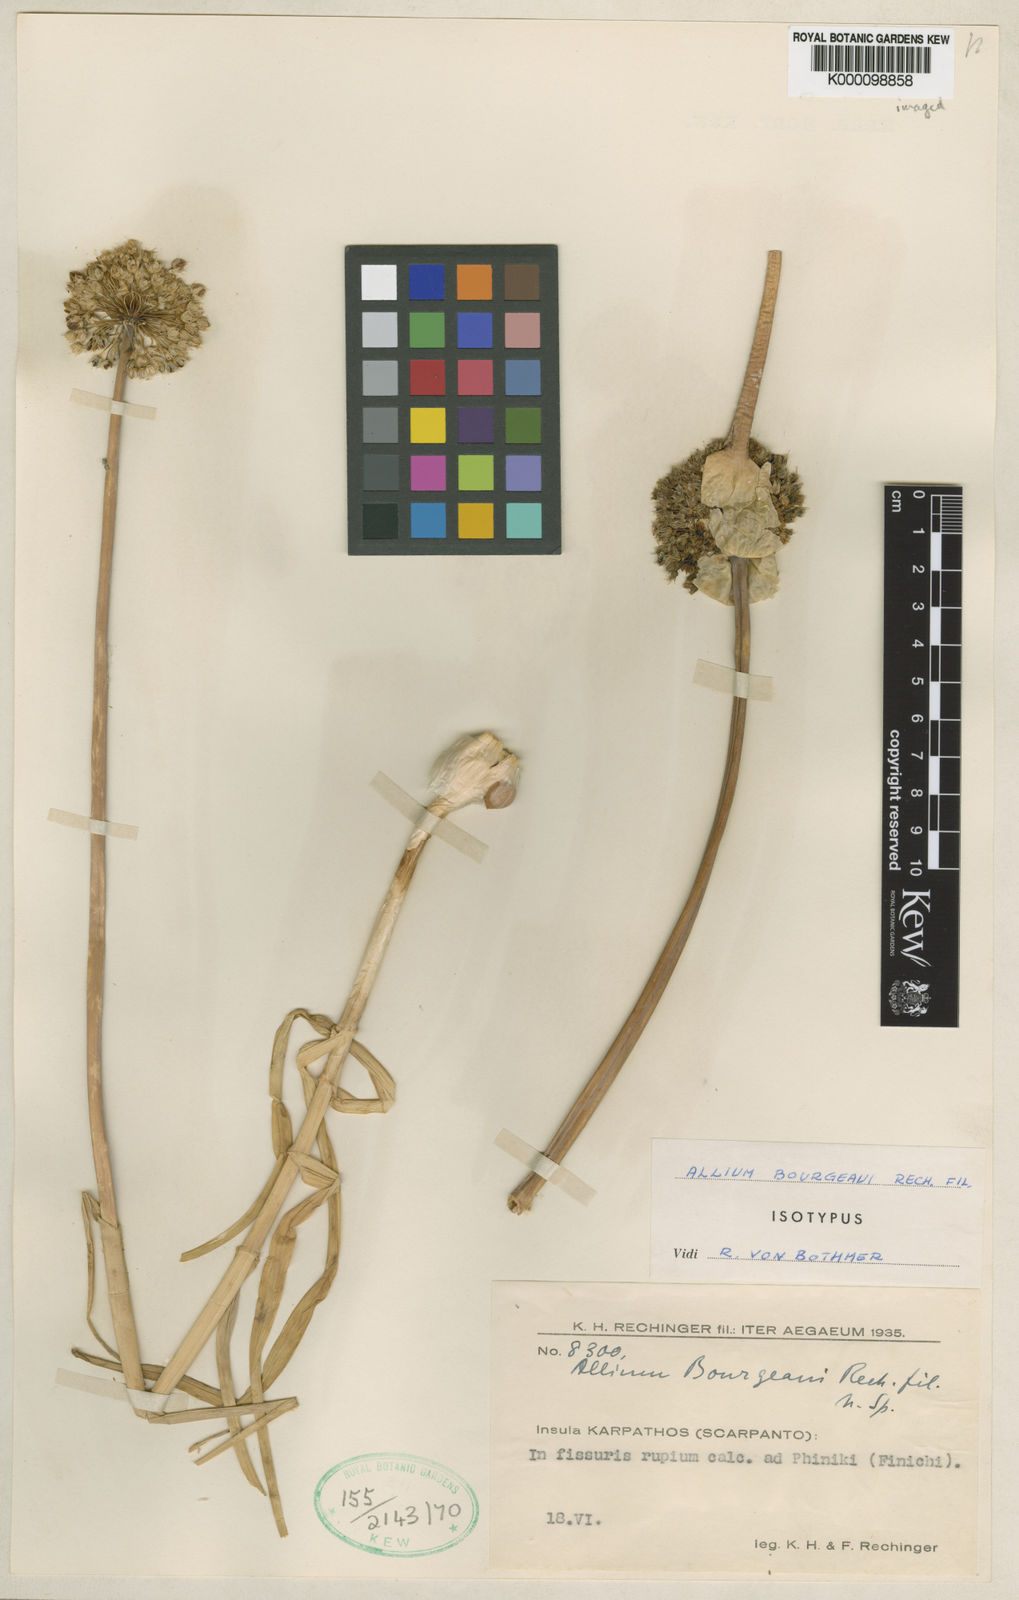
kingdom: Plantae
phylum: Tracheophyta
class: Liliopsida
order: Asparagales
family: Amaryllidaceae
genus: Allium
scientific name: Allium bourgeaui
